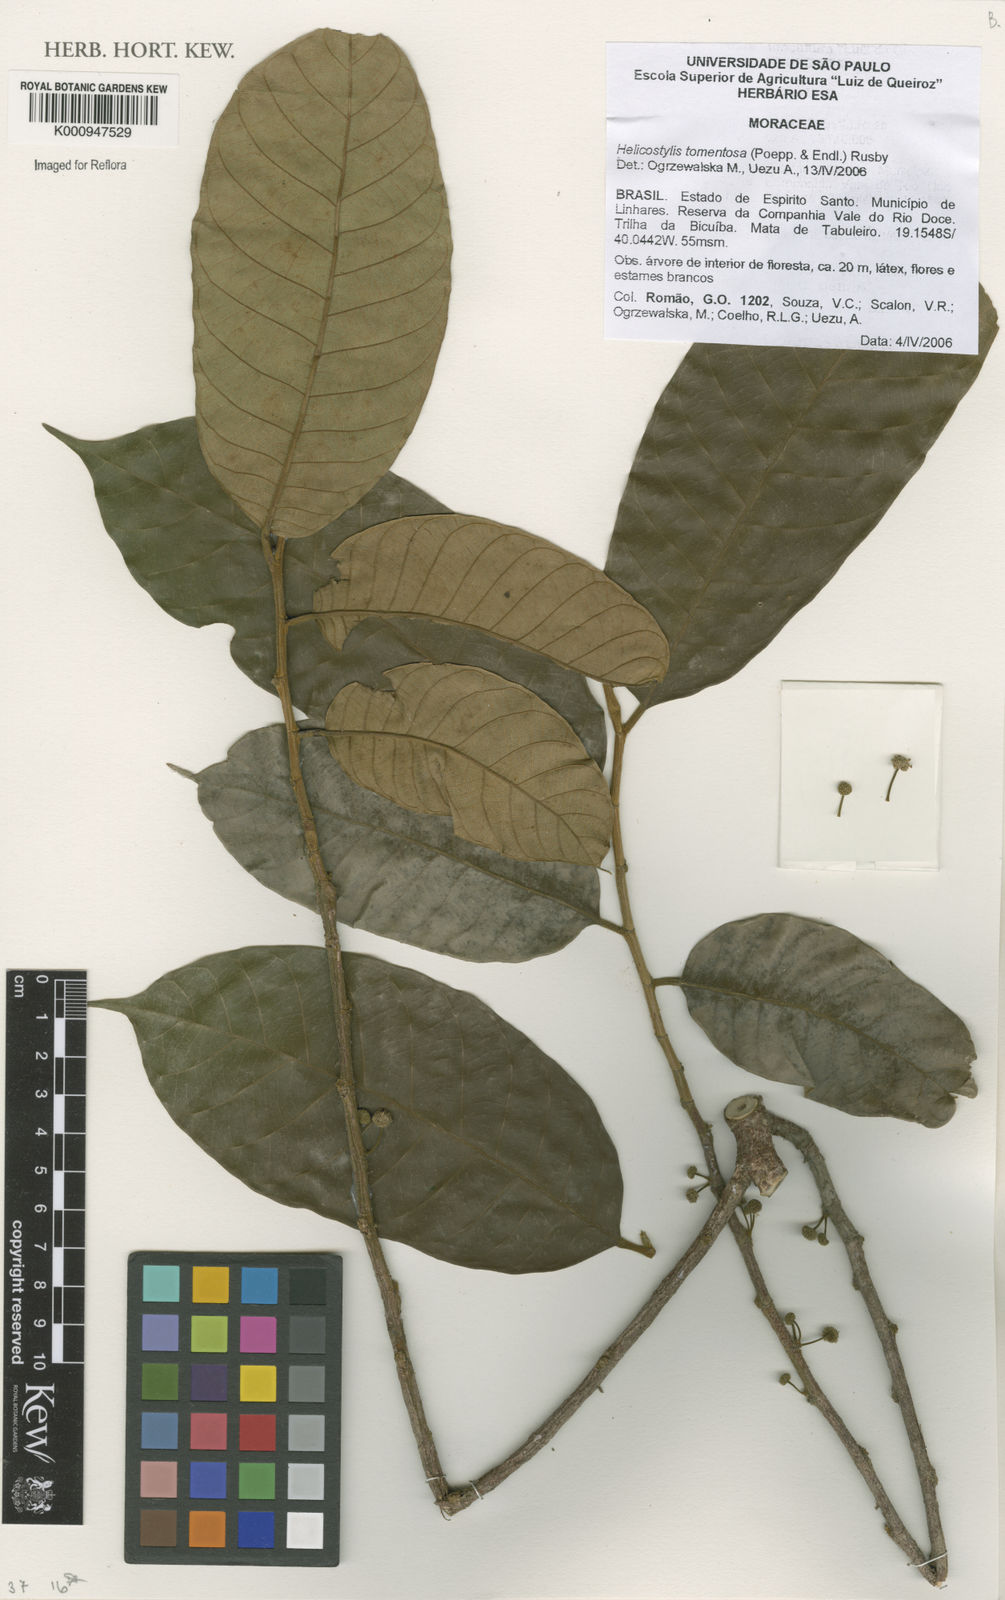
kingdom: Plantae
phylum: Tracheophyta
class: Magnoliopsida
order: Rosales
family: Moraceae
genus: Helicostylis
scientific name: Helicostylis
